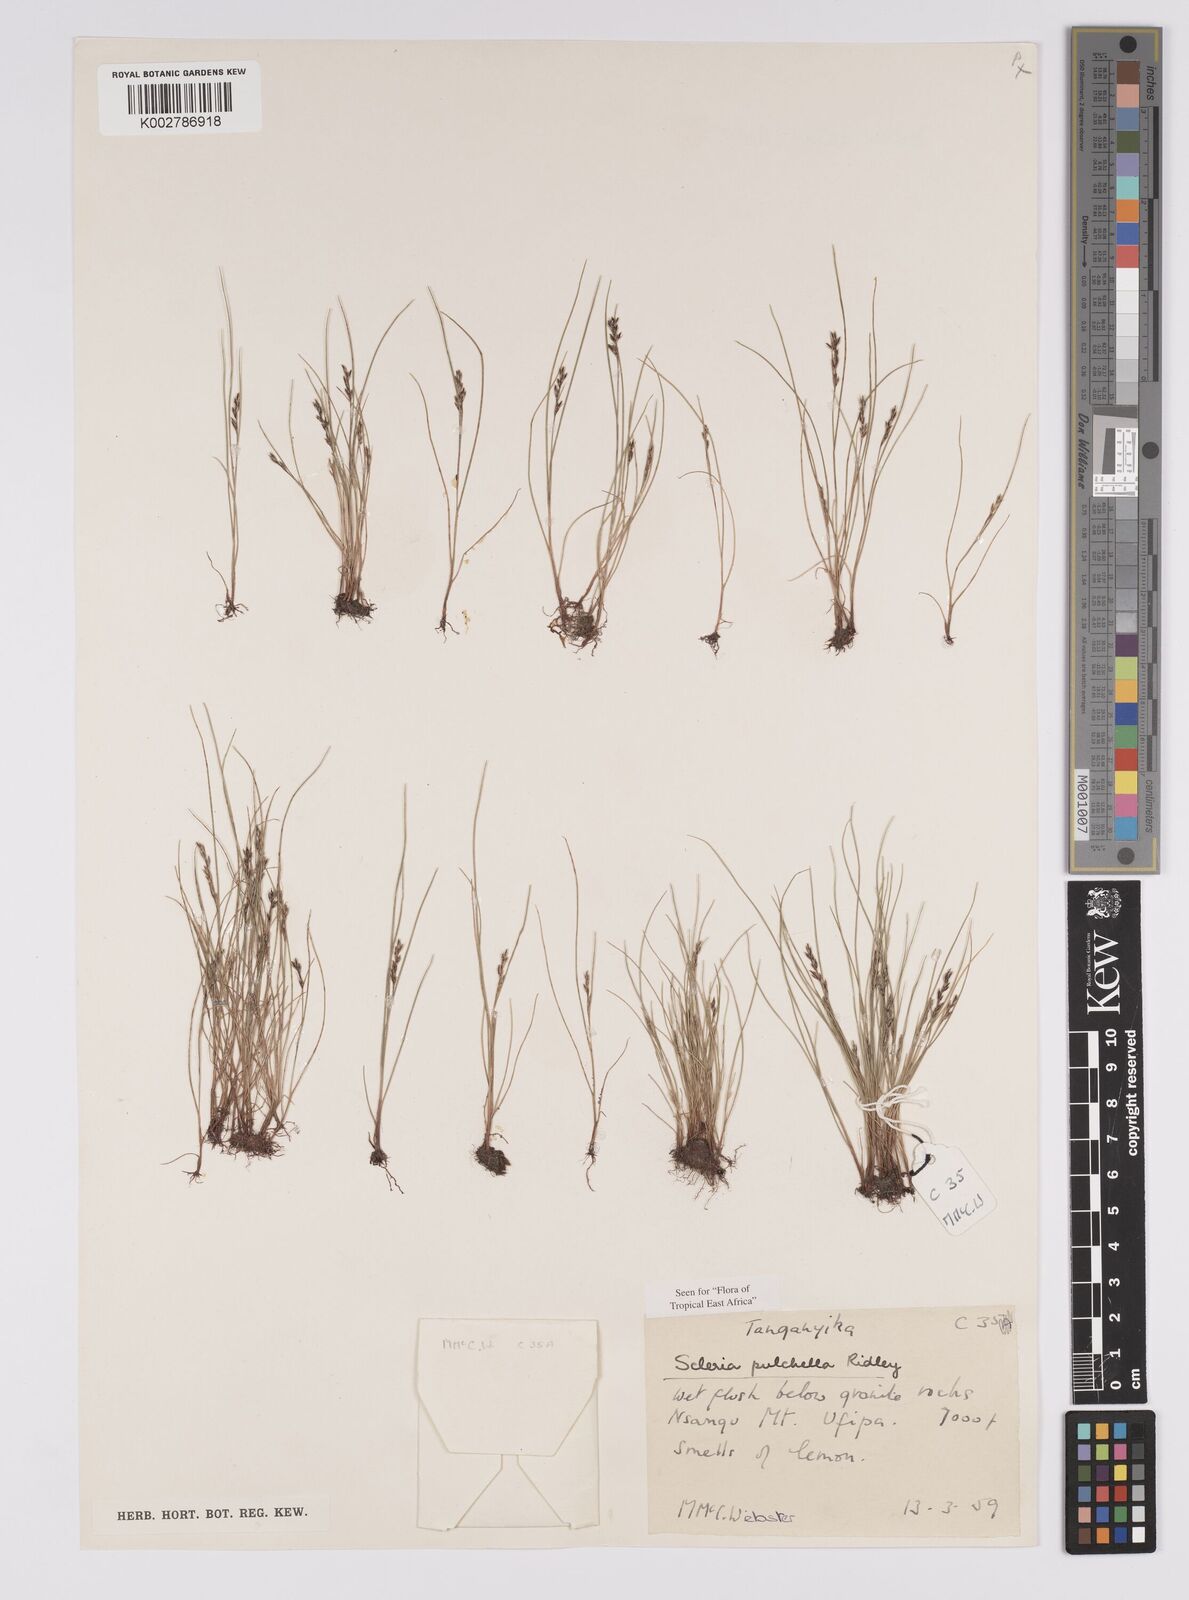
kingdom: Plantae
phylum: Tracheophyta
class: Liliopsida
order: Poales
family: Cyperaceae
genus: Scleria
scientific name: Scleria pulchella
